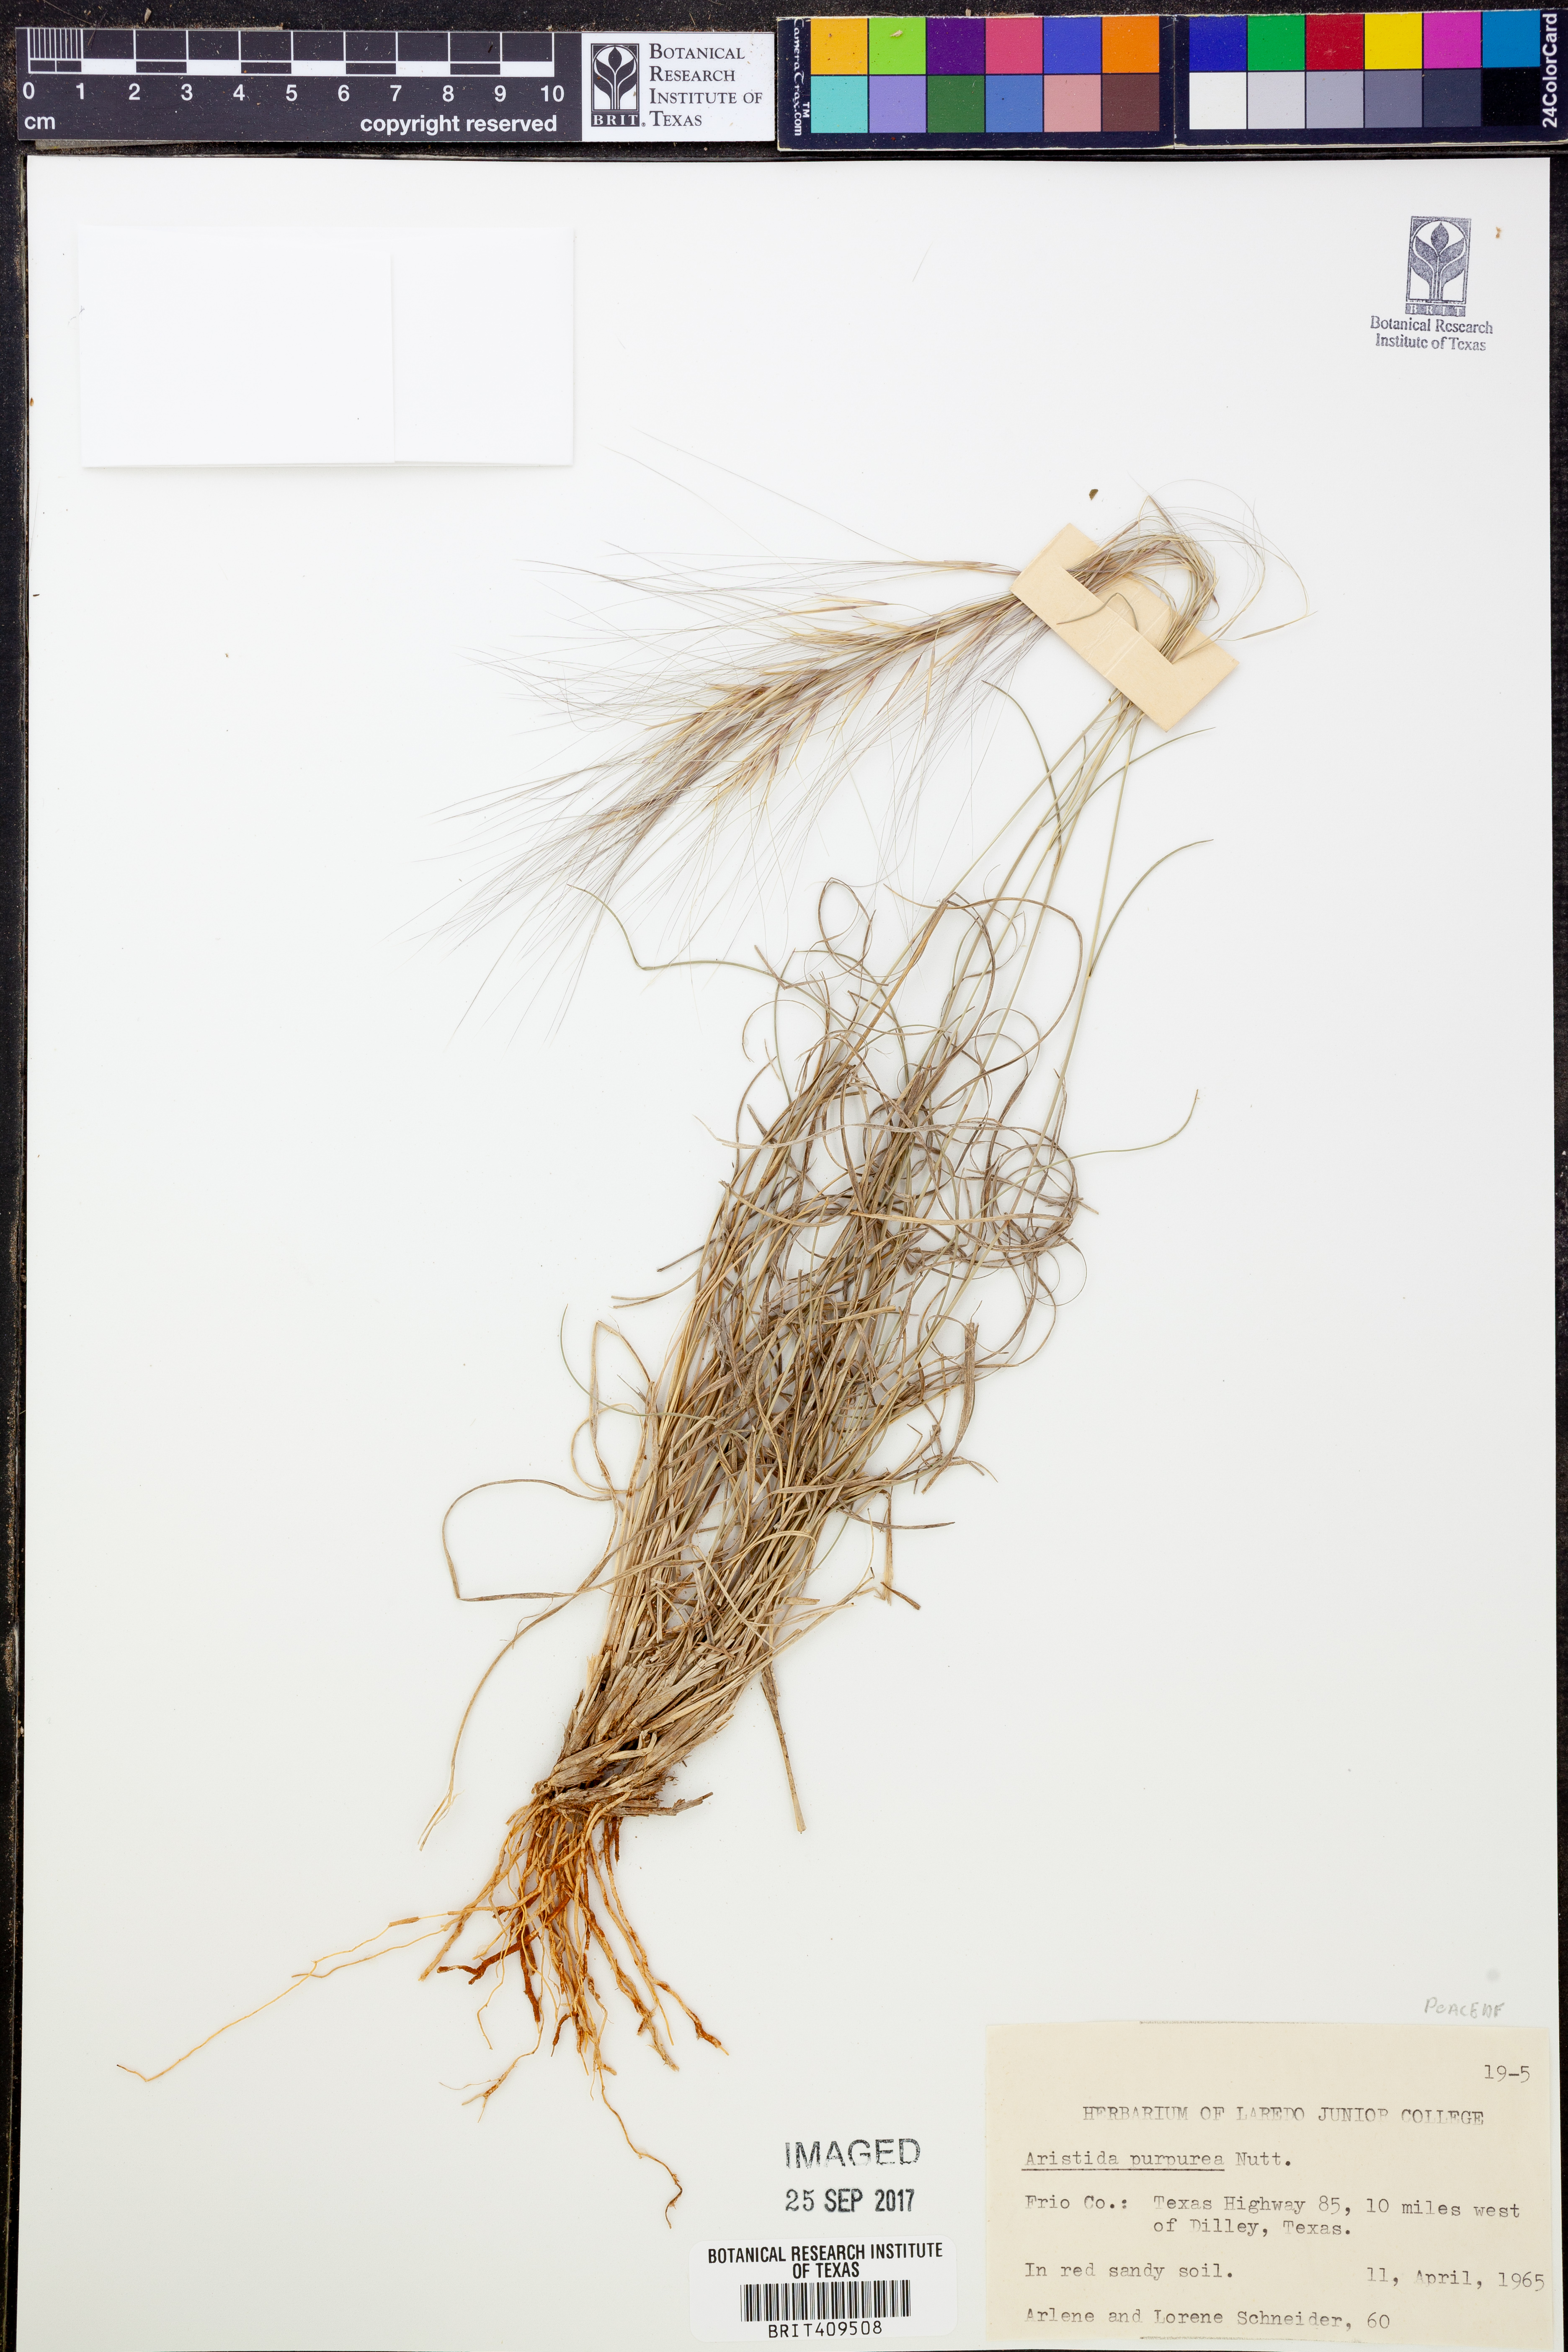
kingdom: Plantae
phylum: Tracheophyta
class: Liliopsida
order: Poales
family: Poaceae
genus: Aristida
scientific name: Aristida purpurea
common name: Purple threeawn
